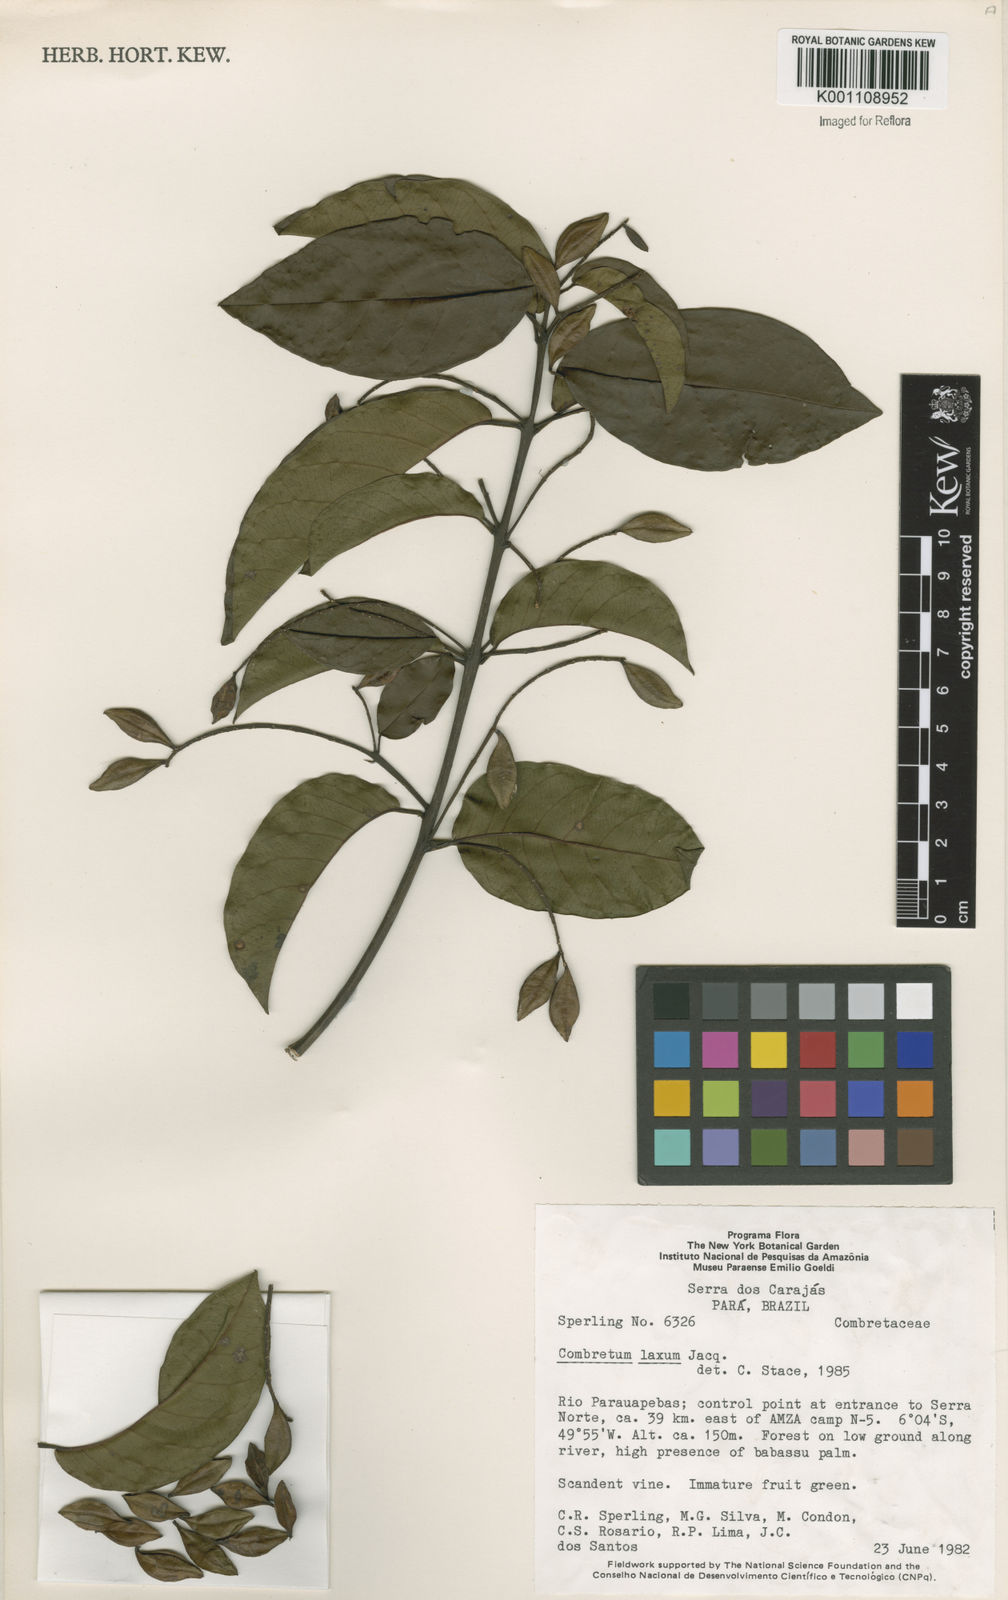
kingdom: Plantae
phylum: Tracheophyta
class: Magnoliopsida
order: Myrtales
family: Combretaceae
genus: Combretum
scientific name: Combretum laxum
